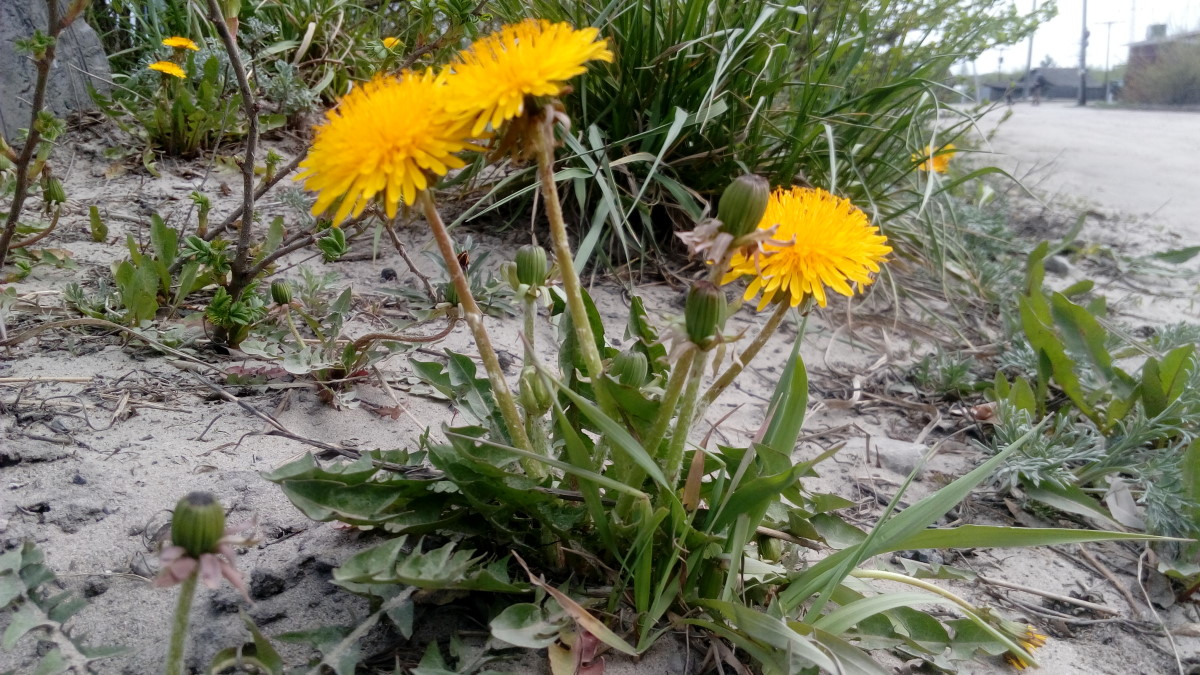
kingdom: Plantae
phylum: Tracheophyta
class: Magnoliopsida
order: Asterales
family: Asteraceae
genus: Taraxacum
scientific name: Taraxacum erythrospermum
